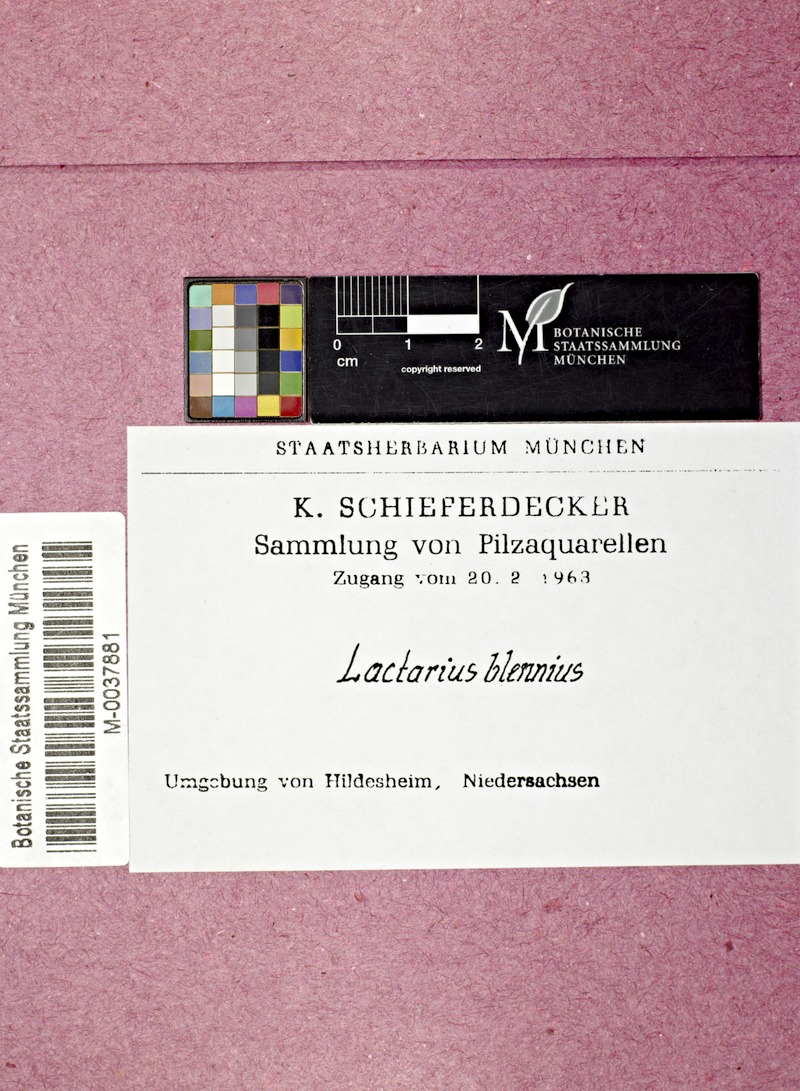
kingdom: Fungi
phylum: Basidiomycota
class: Agaricomycetes
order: Russulales
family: Russulaceae
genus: Lactarius
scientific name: Lactarius blennius
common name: Beech milkcap
